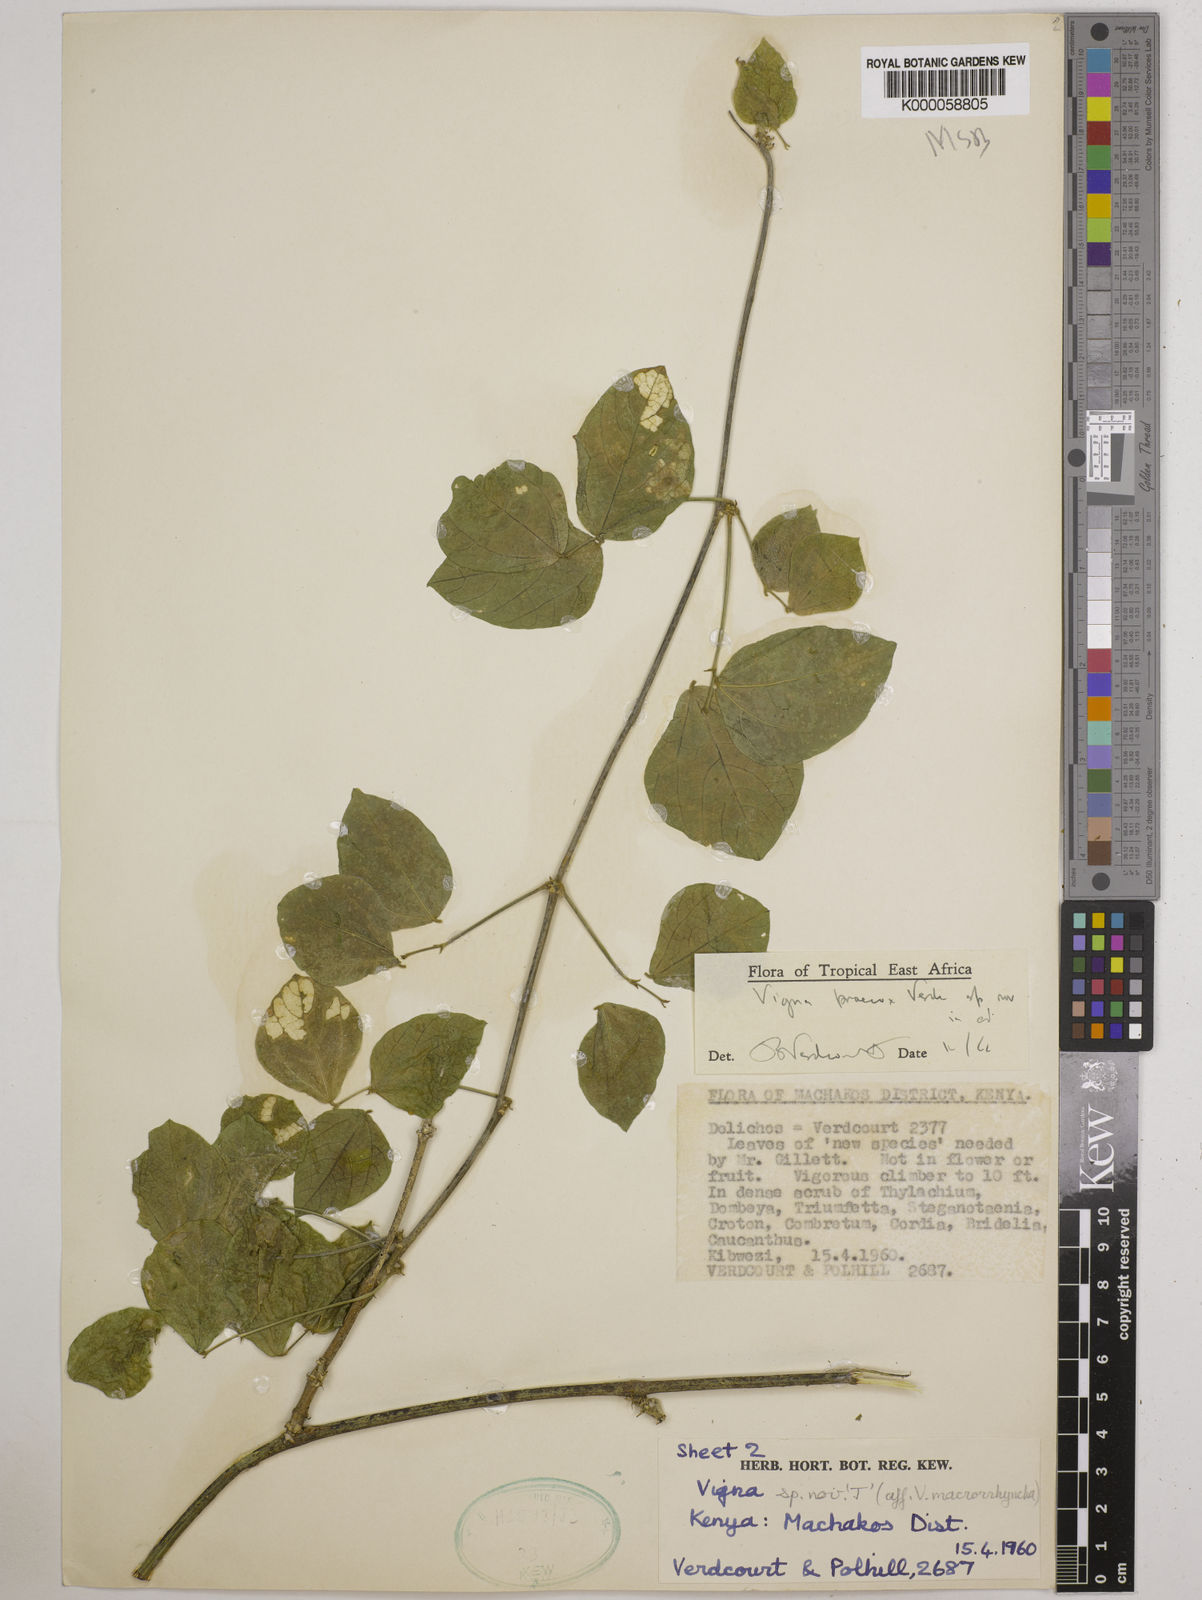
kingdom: Plantae
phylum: Tracheophyta
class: Magnoliopsida
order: Fabales
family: Fabaceae
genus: Wajira
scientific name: Wajira praecox
